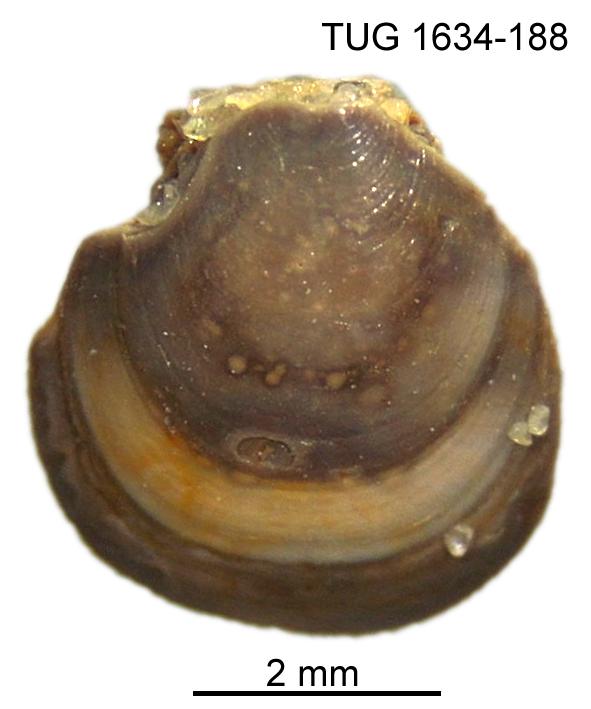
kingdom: Animalia
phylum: Porifera
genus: Ungula
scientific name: Ungula
